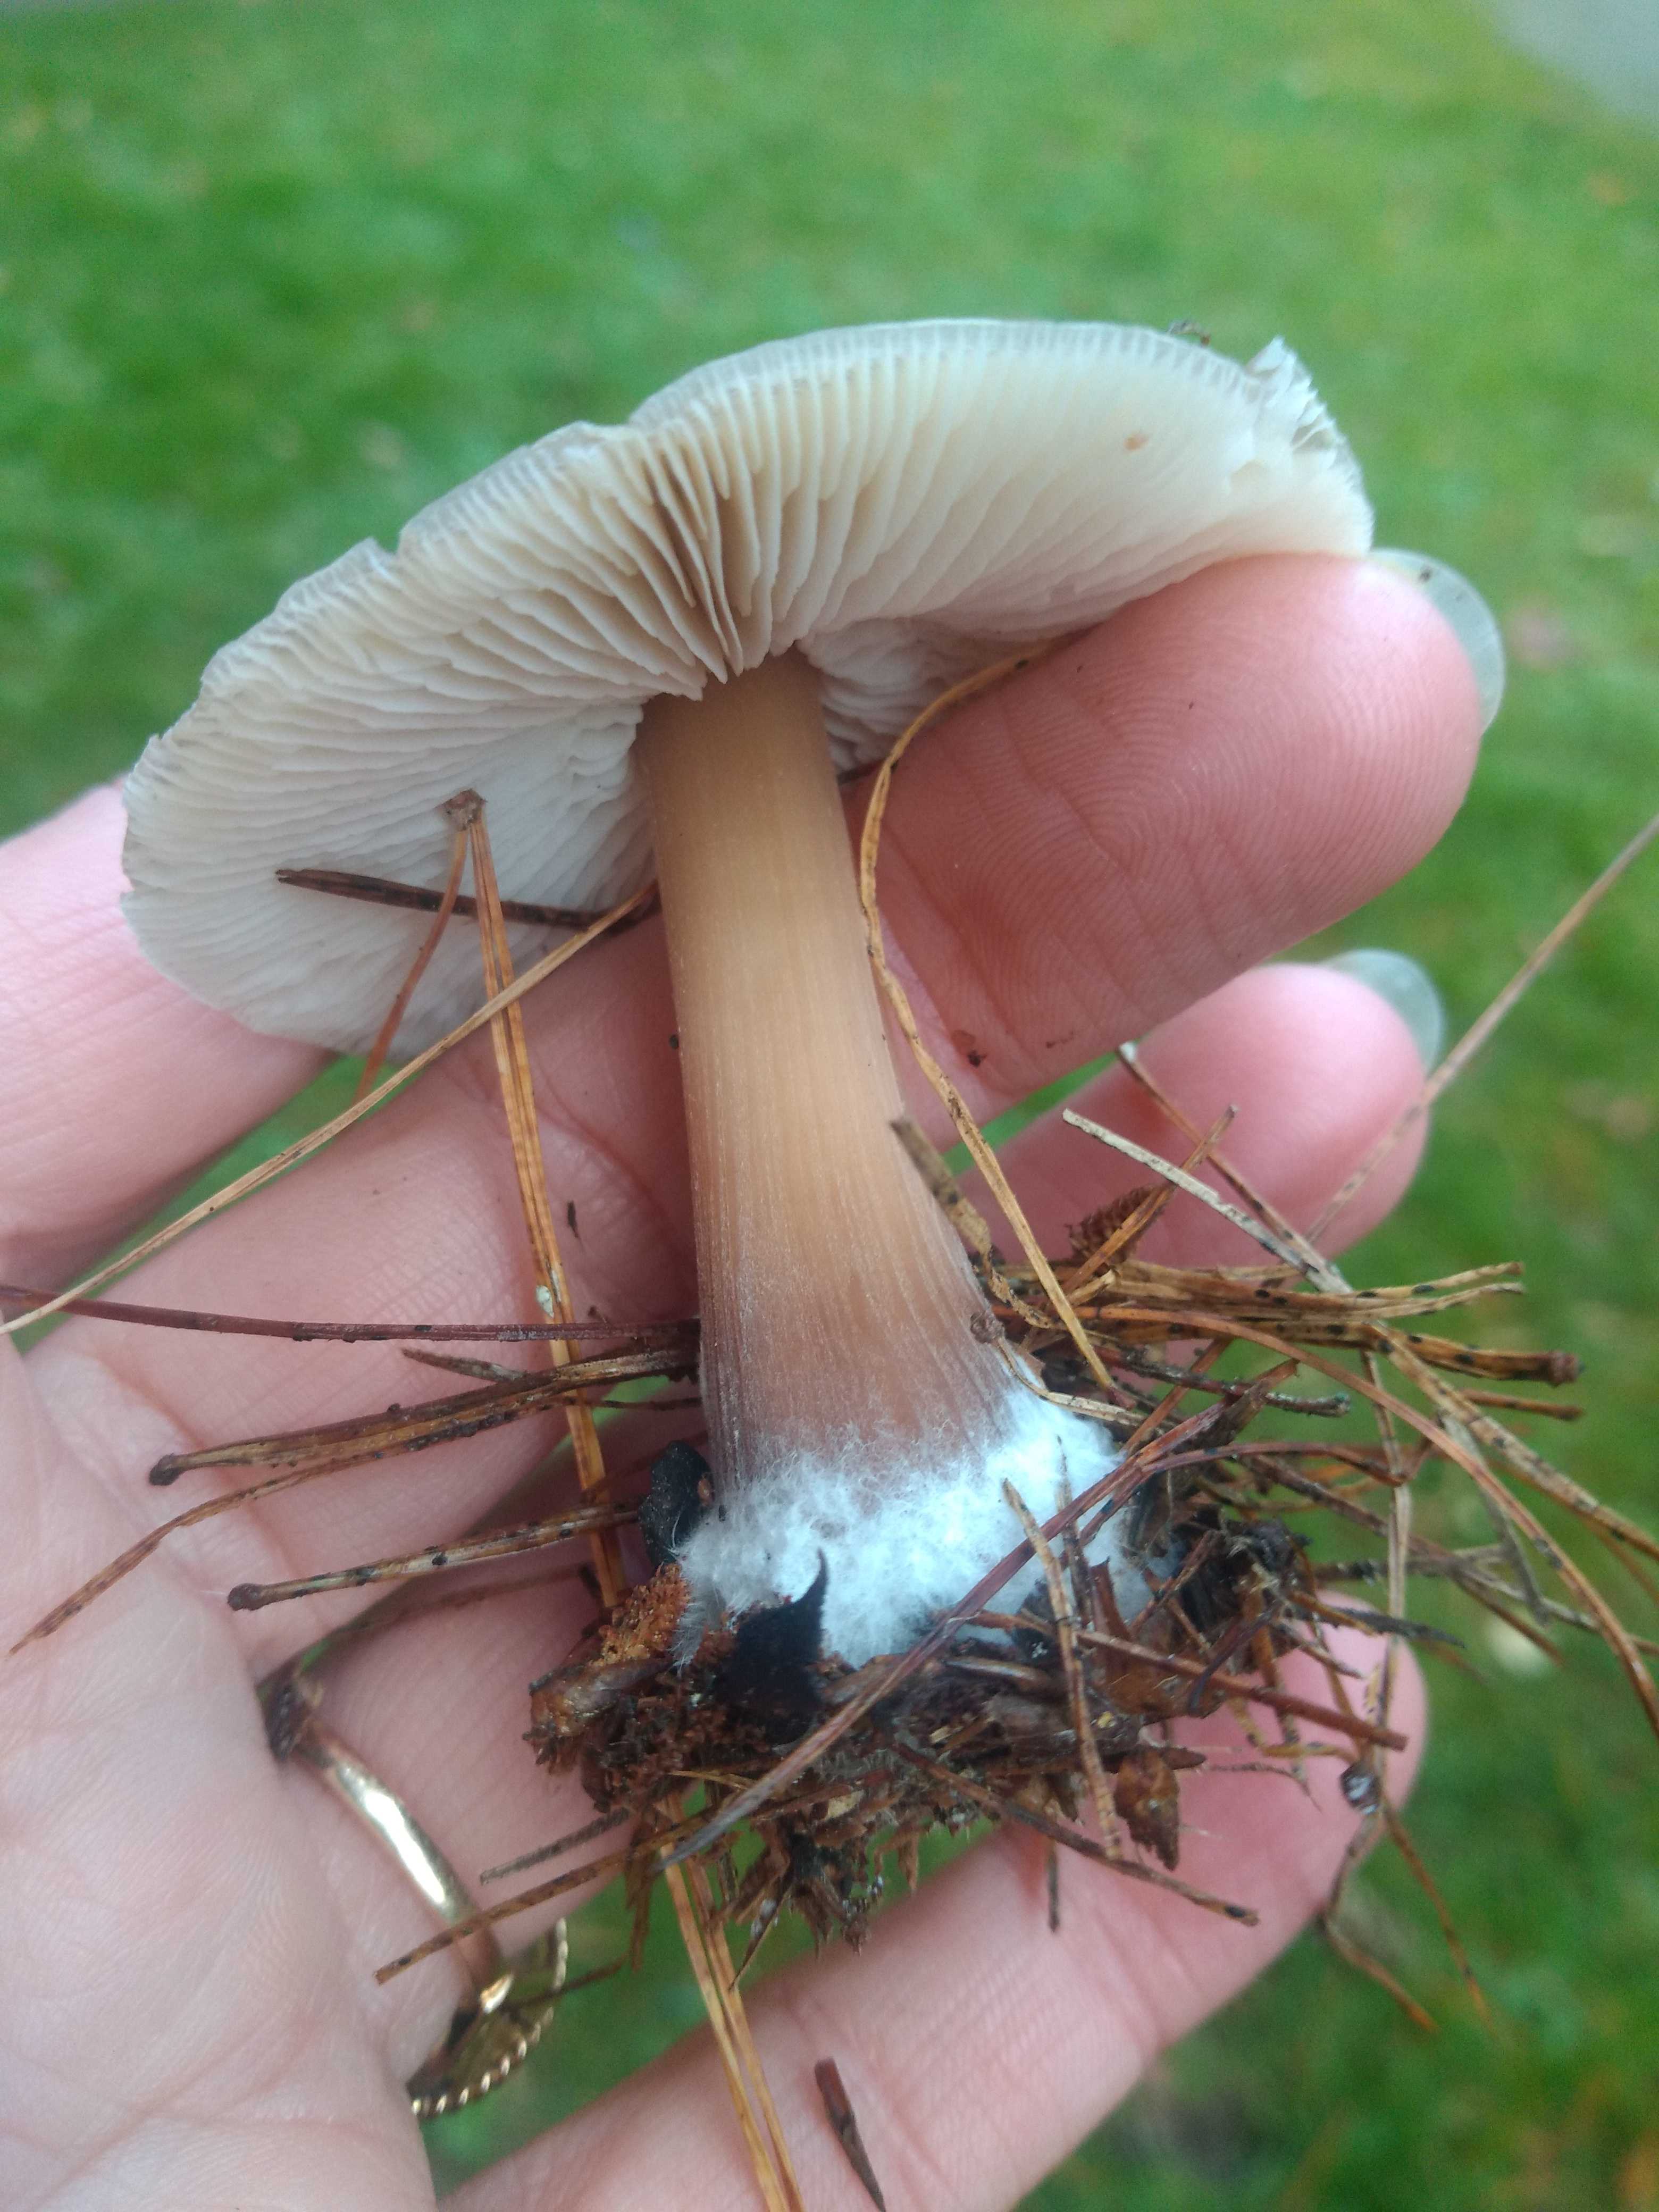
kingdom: Fungi
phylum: Basidiomycota
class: Agaricomycetes
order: Agaricales
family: Omphalotaceae
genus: Rhodocollybia
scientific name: Rhodocollybia asema
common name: horngrå fladhat
